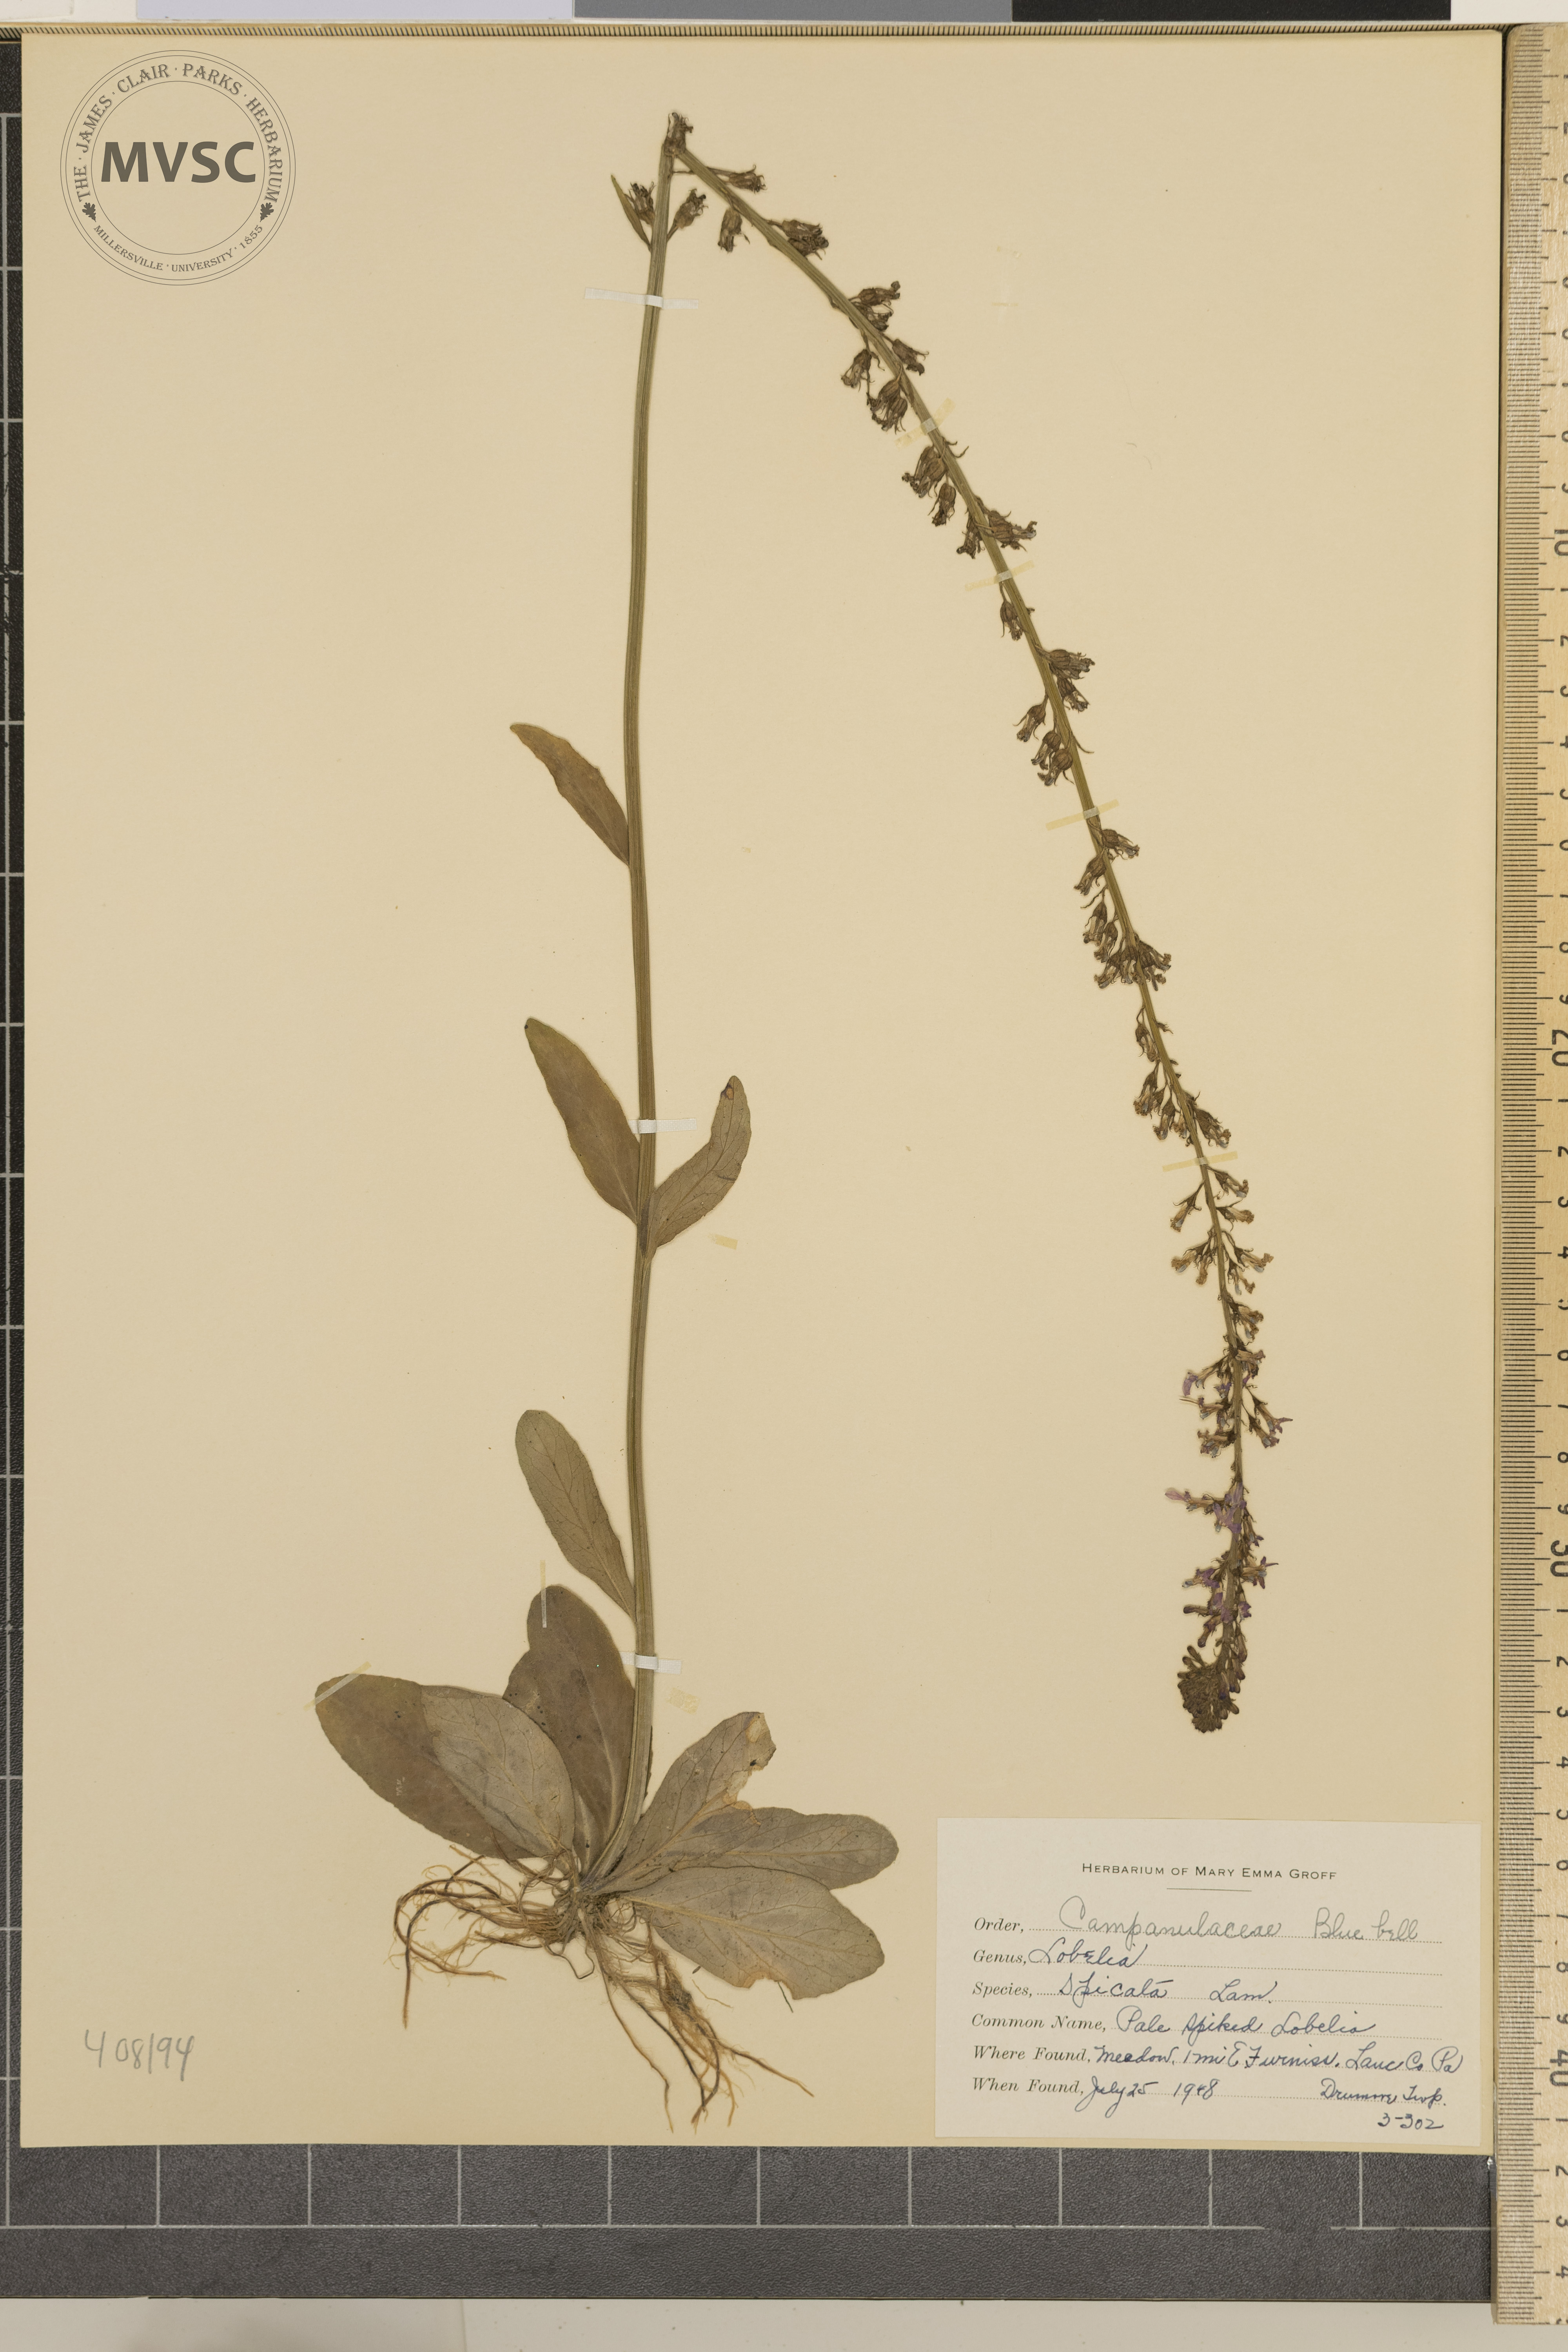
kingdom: Plantae
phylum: Tracheophyta
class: Magnoliopsida
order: Asterales
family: Campanulaceae
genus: Lobelia
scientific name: Lobelia spicata
